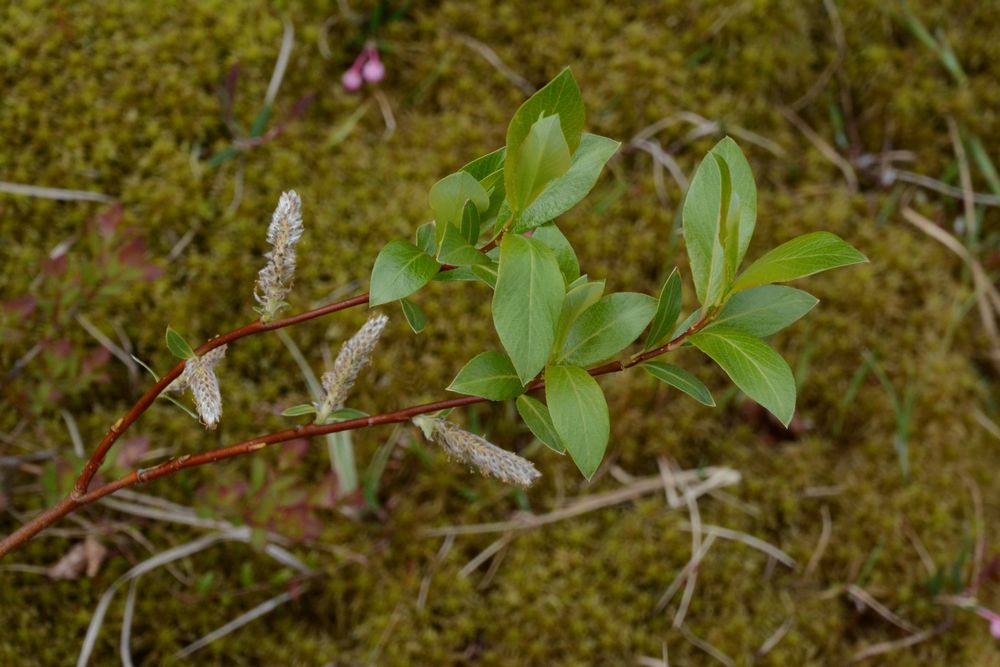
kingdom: Plantae
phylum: Tracheophyta
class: Magnoliopsida
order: Malpighiales
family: Salicaceae
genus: Salix
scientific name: Salix
